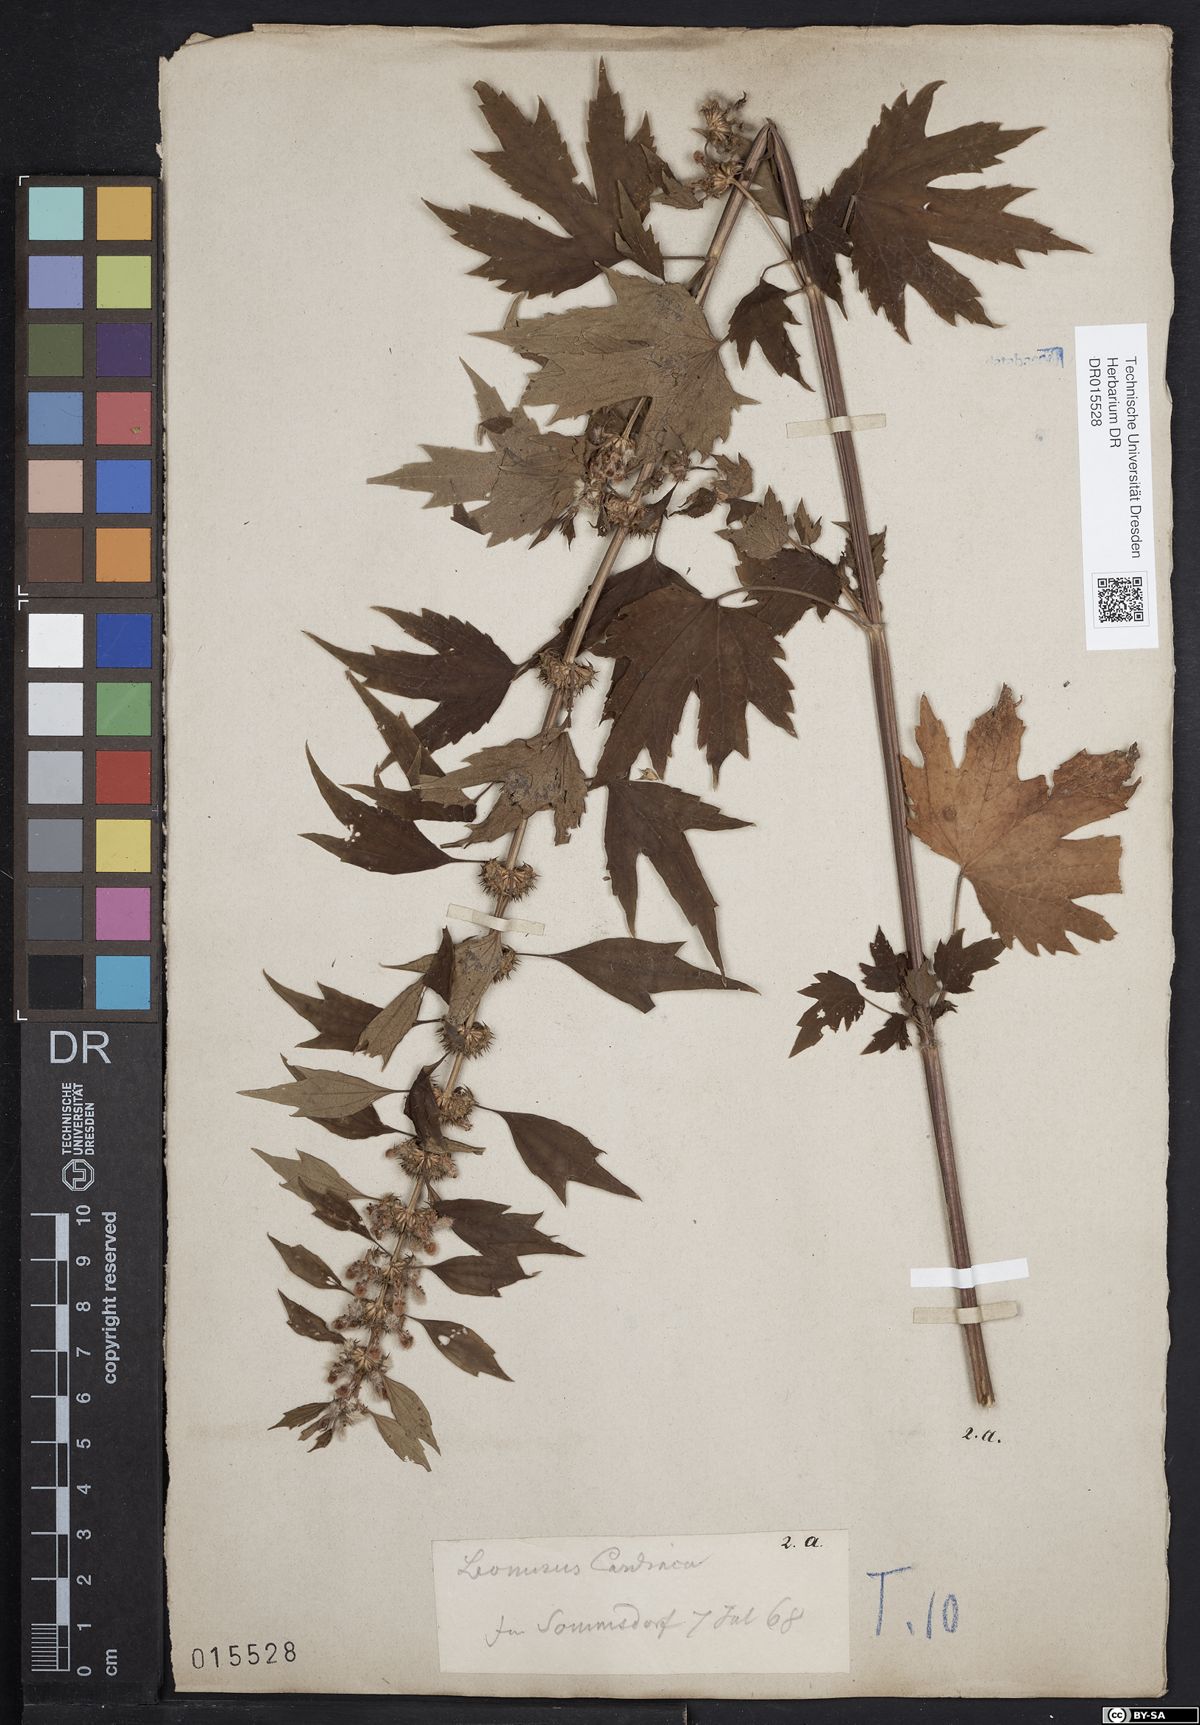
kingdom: Plantae
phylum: Tracheophyta
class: Magnoliopsida
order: Lamiales
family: Lamiaceae
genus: Leonurus
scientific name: Leonurus cardiaca
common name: Motherwort
